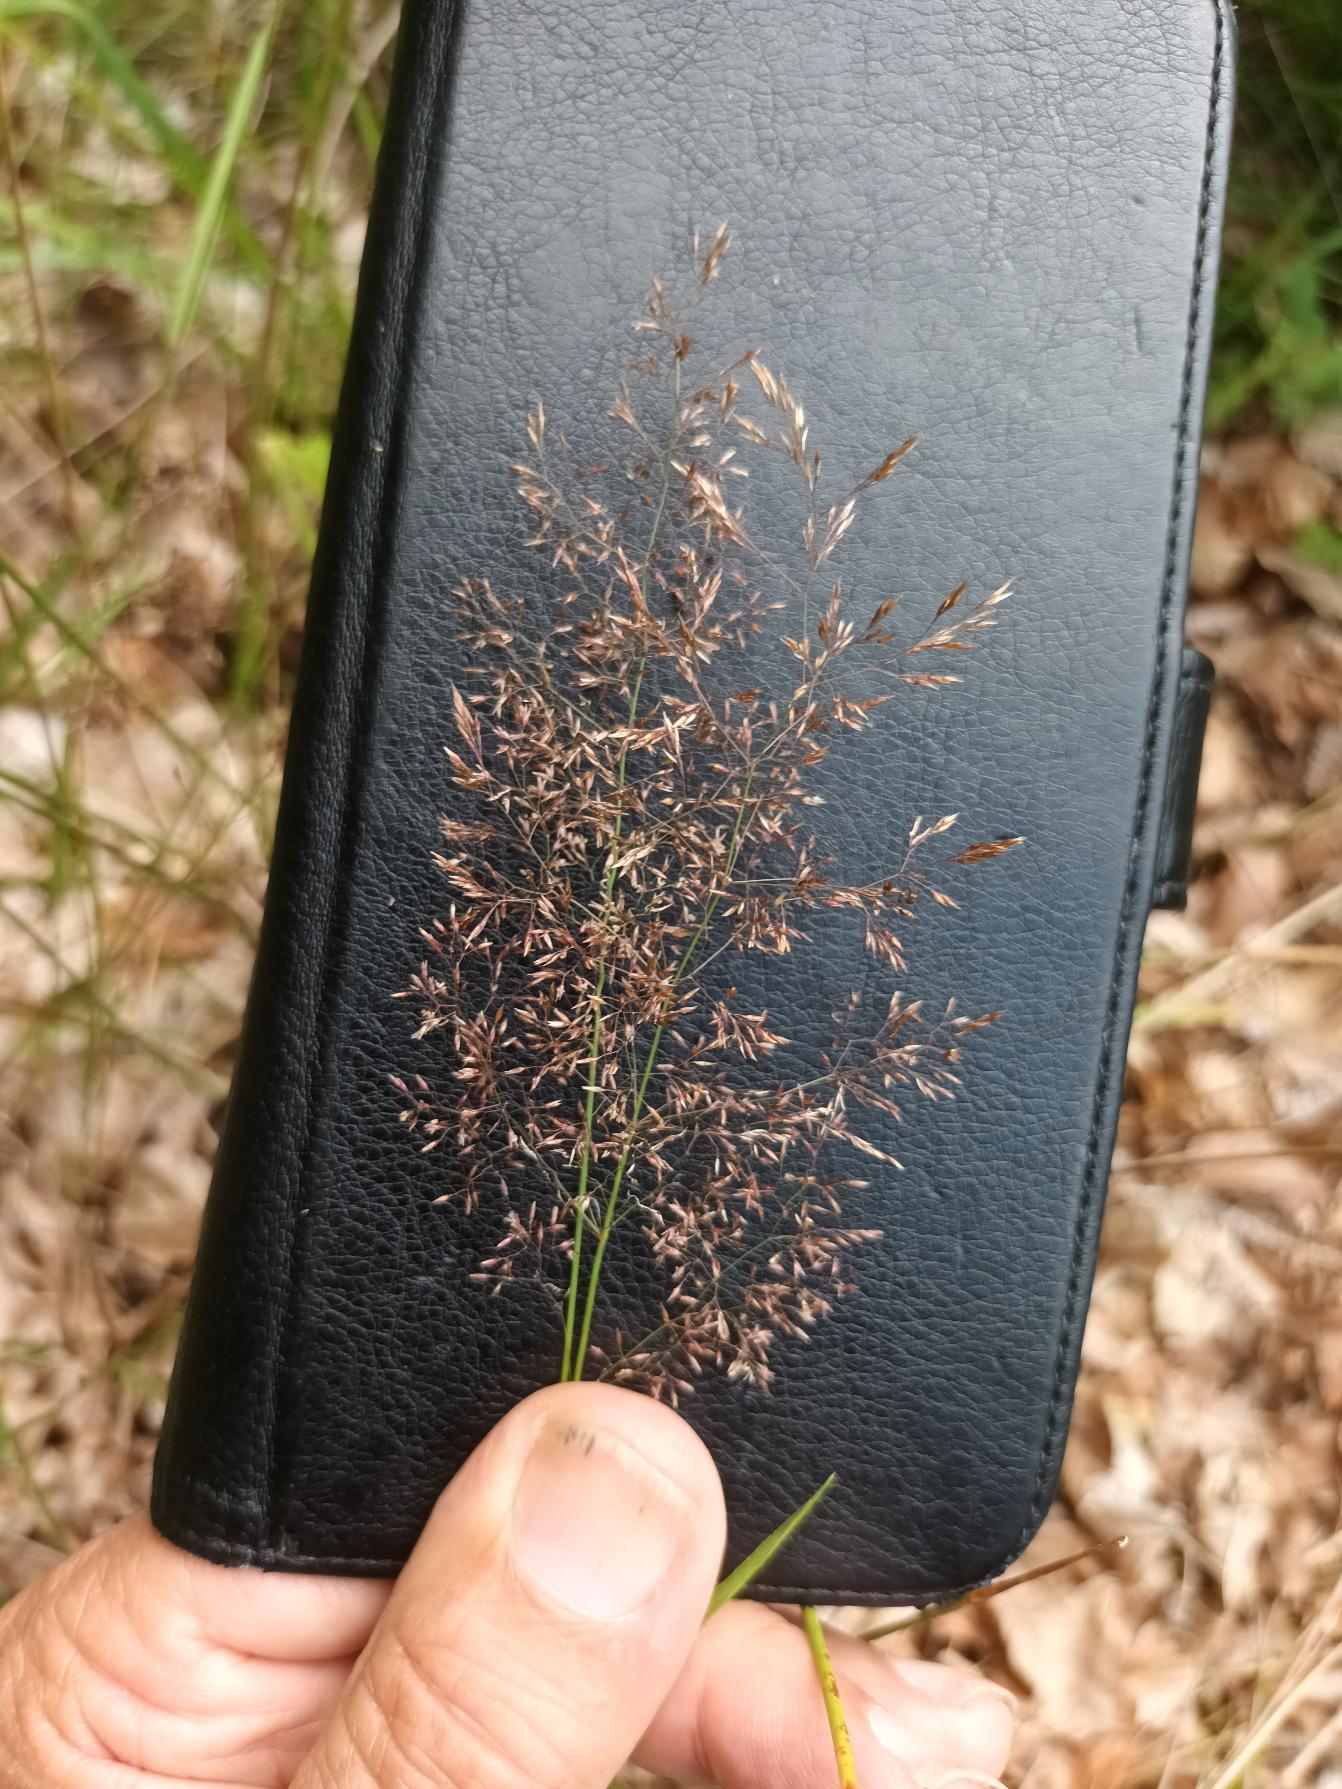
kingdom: Plantae
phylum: Tracheophyta
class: Liliopsida
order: Poales
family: Poaceae
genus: Agrostis
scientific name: Agrostis capillaris
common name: Almindelig hvene
